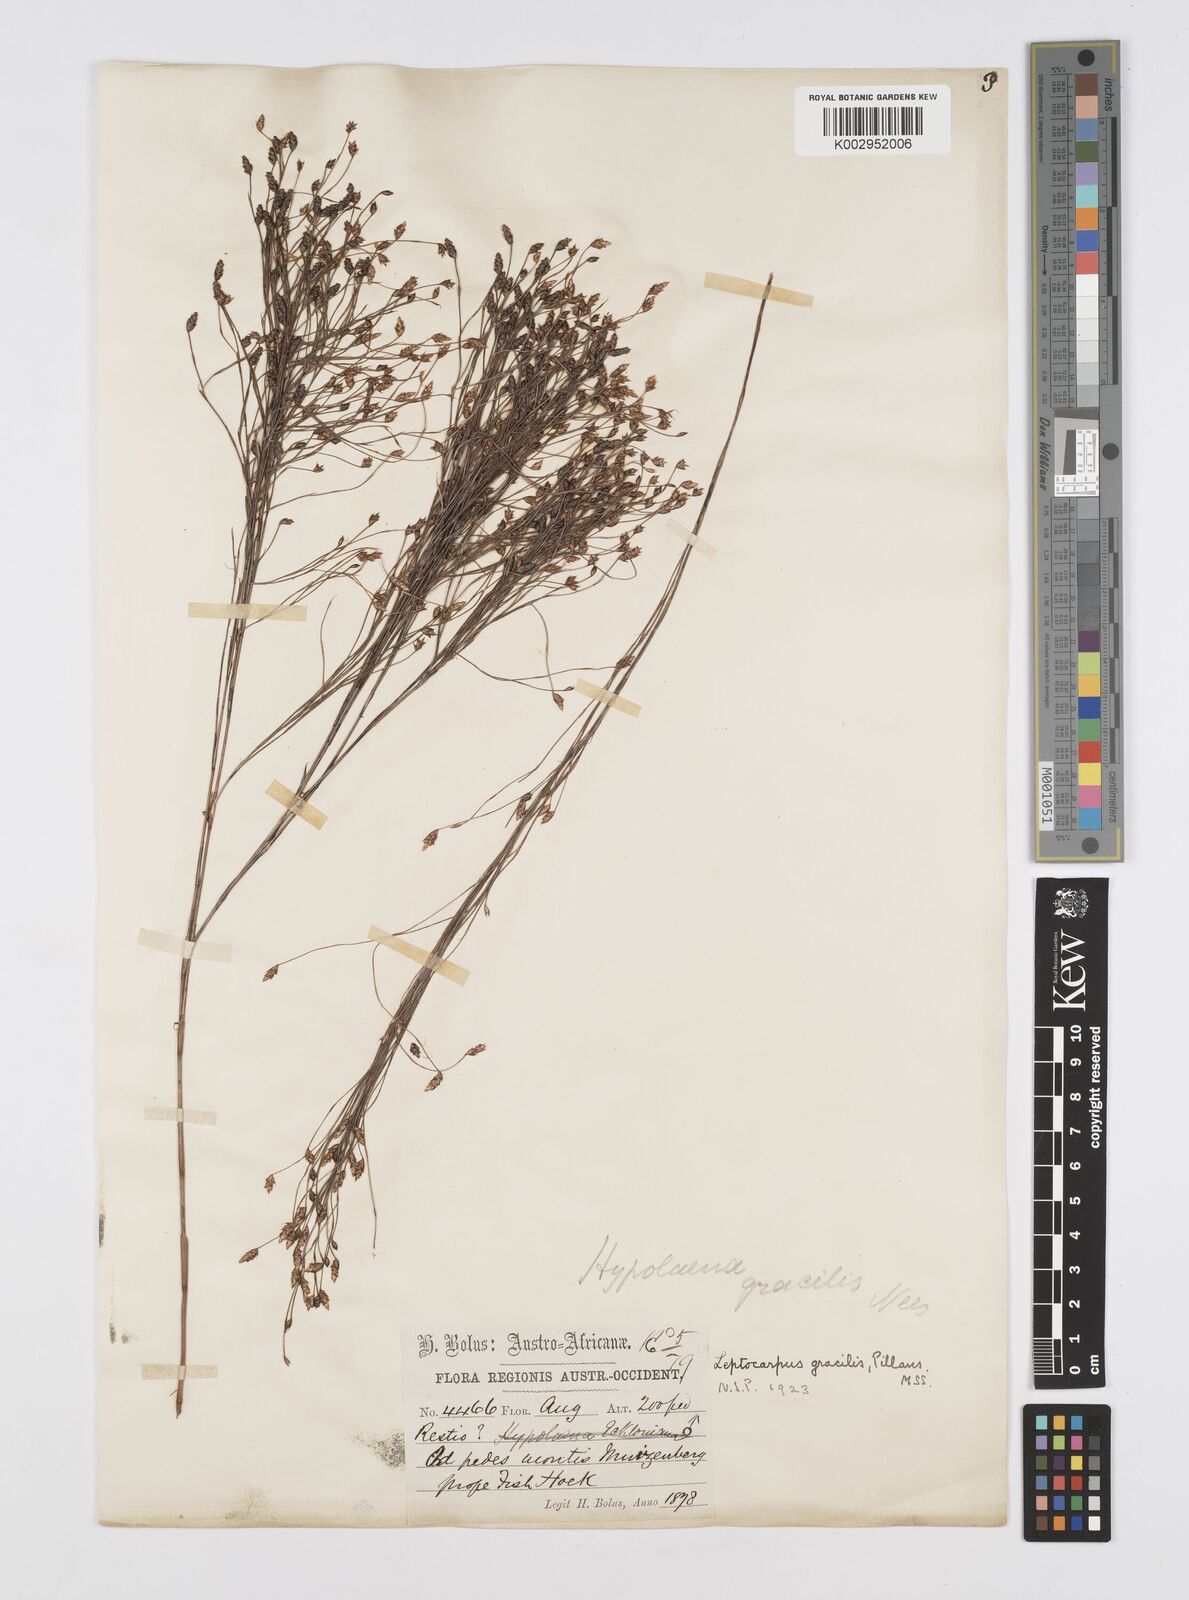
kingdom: Plantae
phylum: Tracheophyta
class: Liliopsida
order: Poales
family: Restionaceae
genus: Baloskion
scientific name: Baloskion gracile
